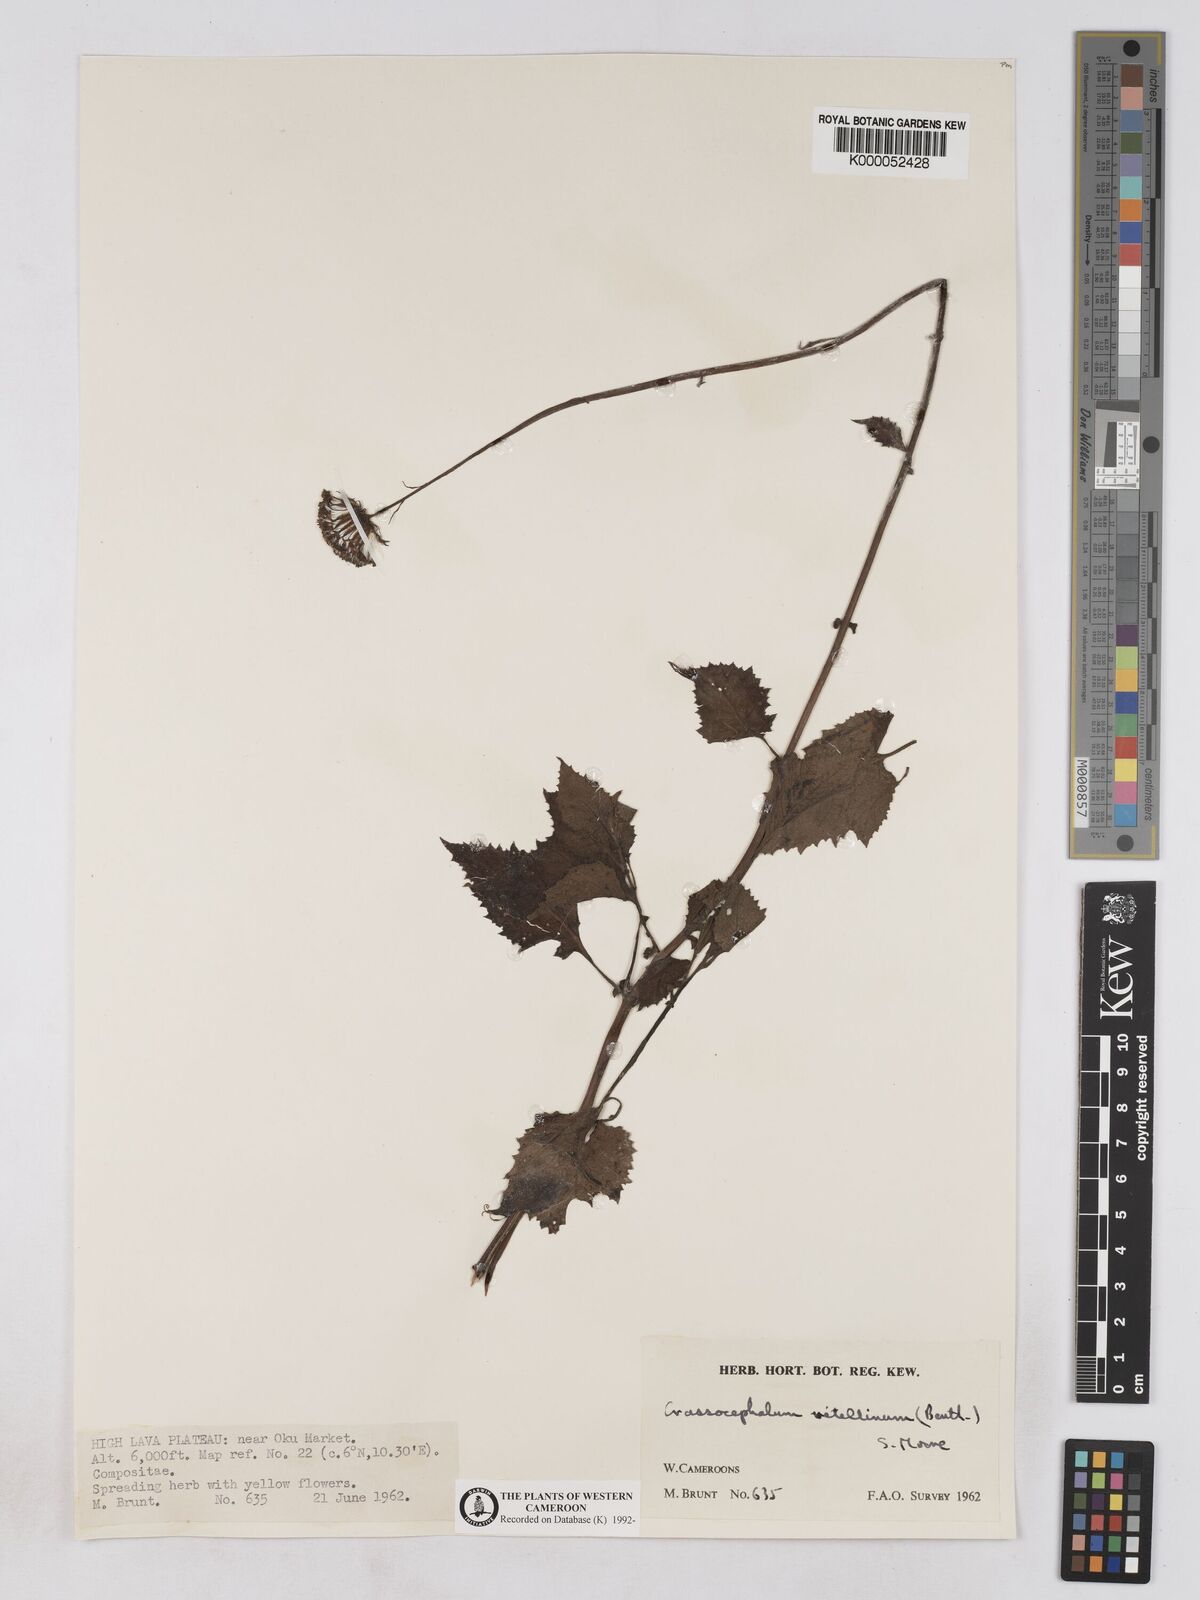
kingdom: Plantae
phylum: Tracheophyta
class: Magnoliopsida
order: Asterales
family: Asteraceae
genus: Crassocephalum
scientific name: Crassocephalum vitellinum
